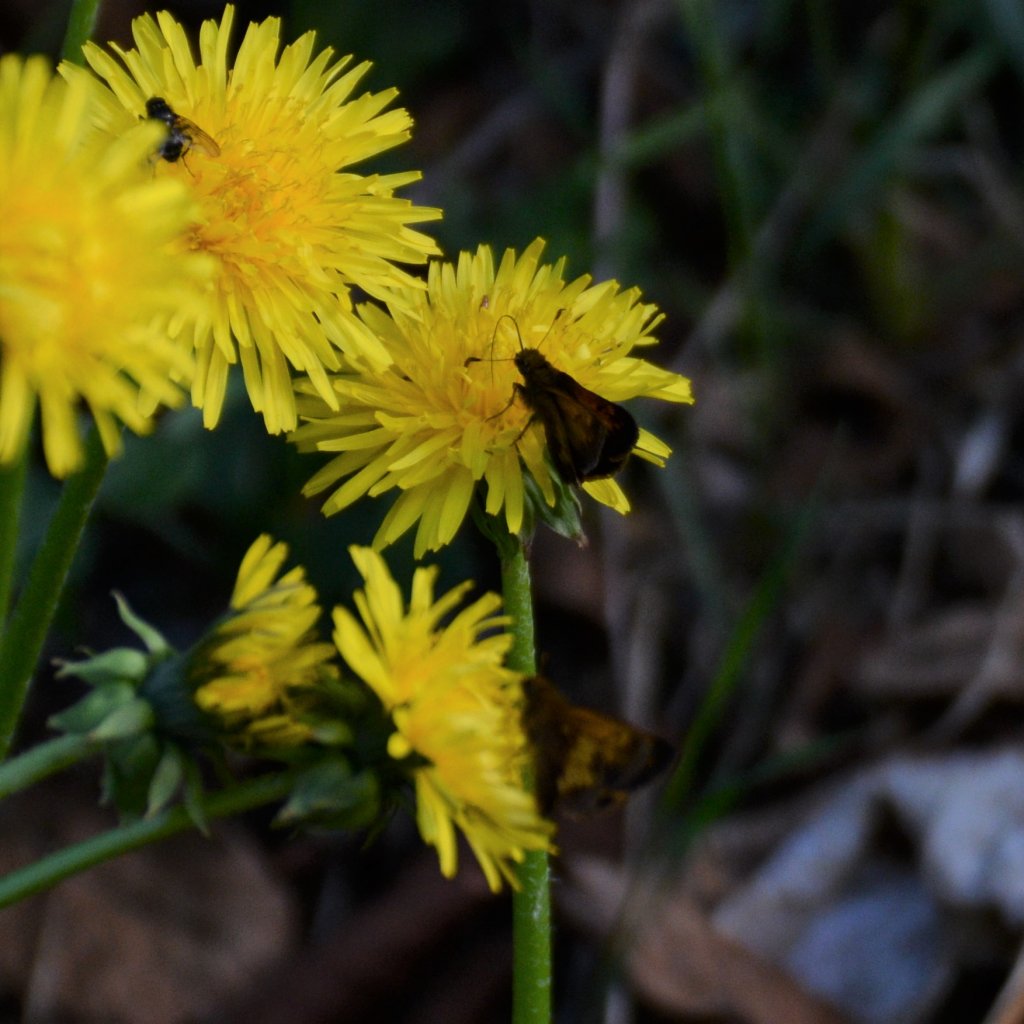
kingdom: Animalia
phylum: Arthropoda
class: Insecta
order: Lepidoptera
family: Hesperiidae
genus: Lon
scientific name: Lon hobomok
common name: Hobomok Skipper
